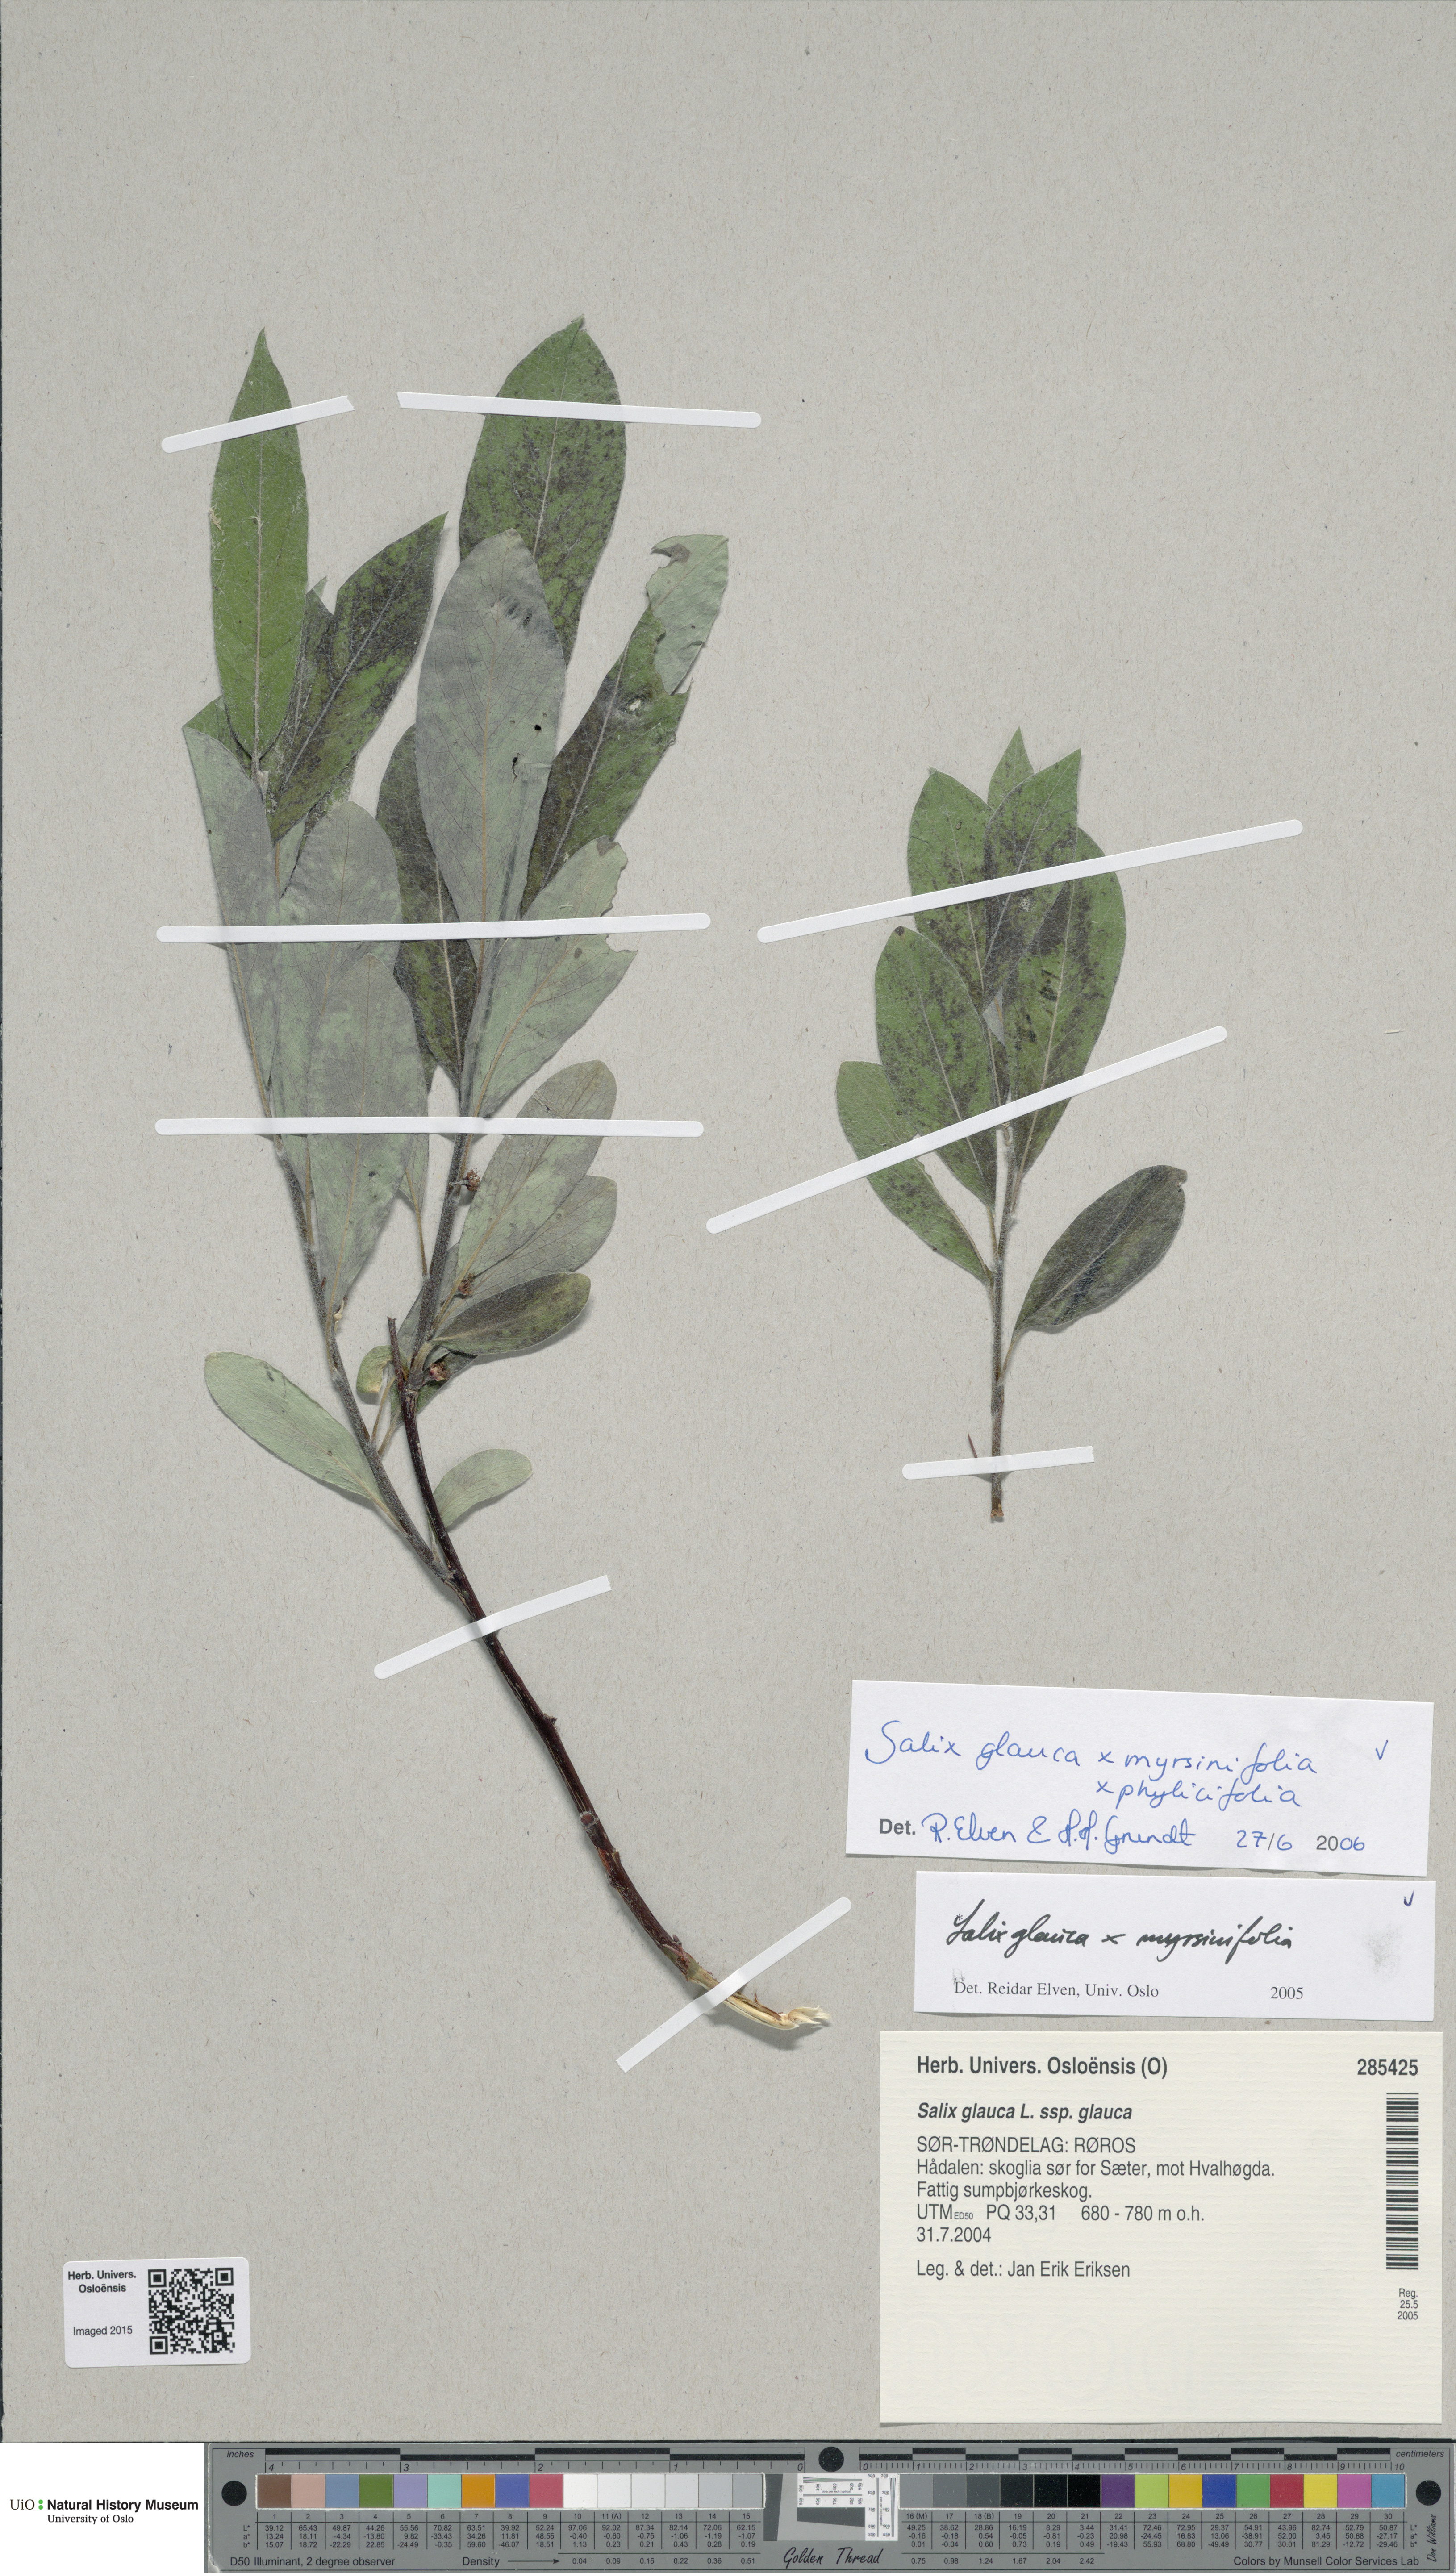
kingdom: Plantae
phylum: Tracheophyta
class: Magnoliopsida
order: Malpighiales
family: Salicaceae
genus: Salix
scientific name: Salix
